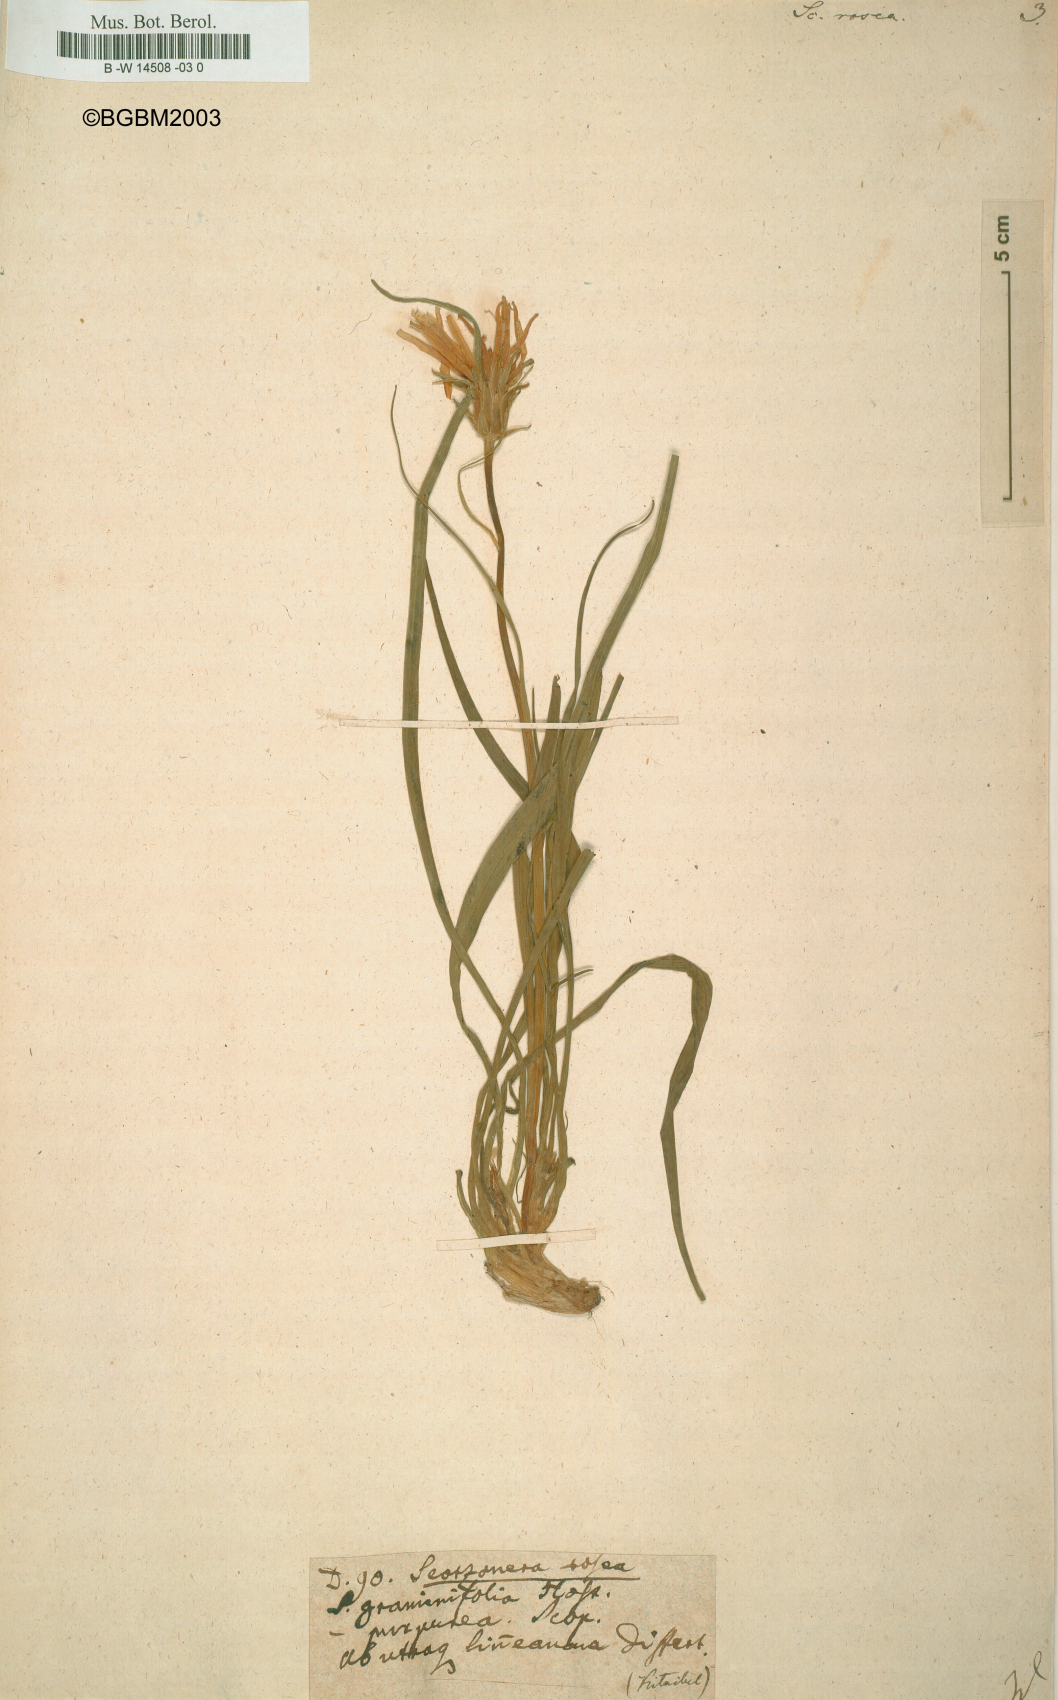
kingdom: Plantae
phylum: Tracheophyta
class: Magnoliopsida
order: Asterales
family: Asteraceae
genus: Scorzonera
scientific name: Scorzonera rosea
